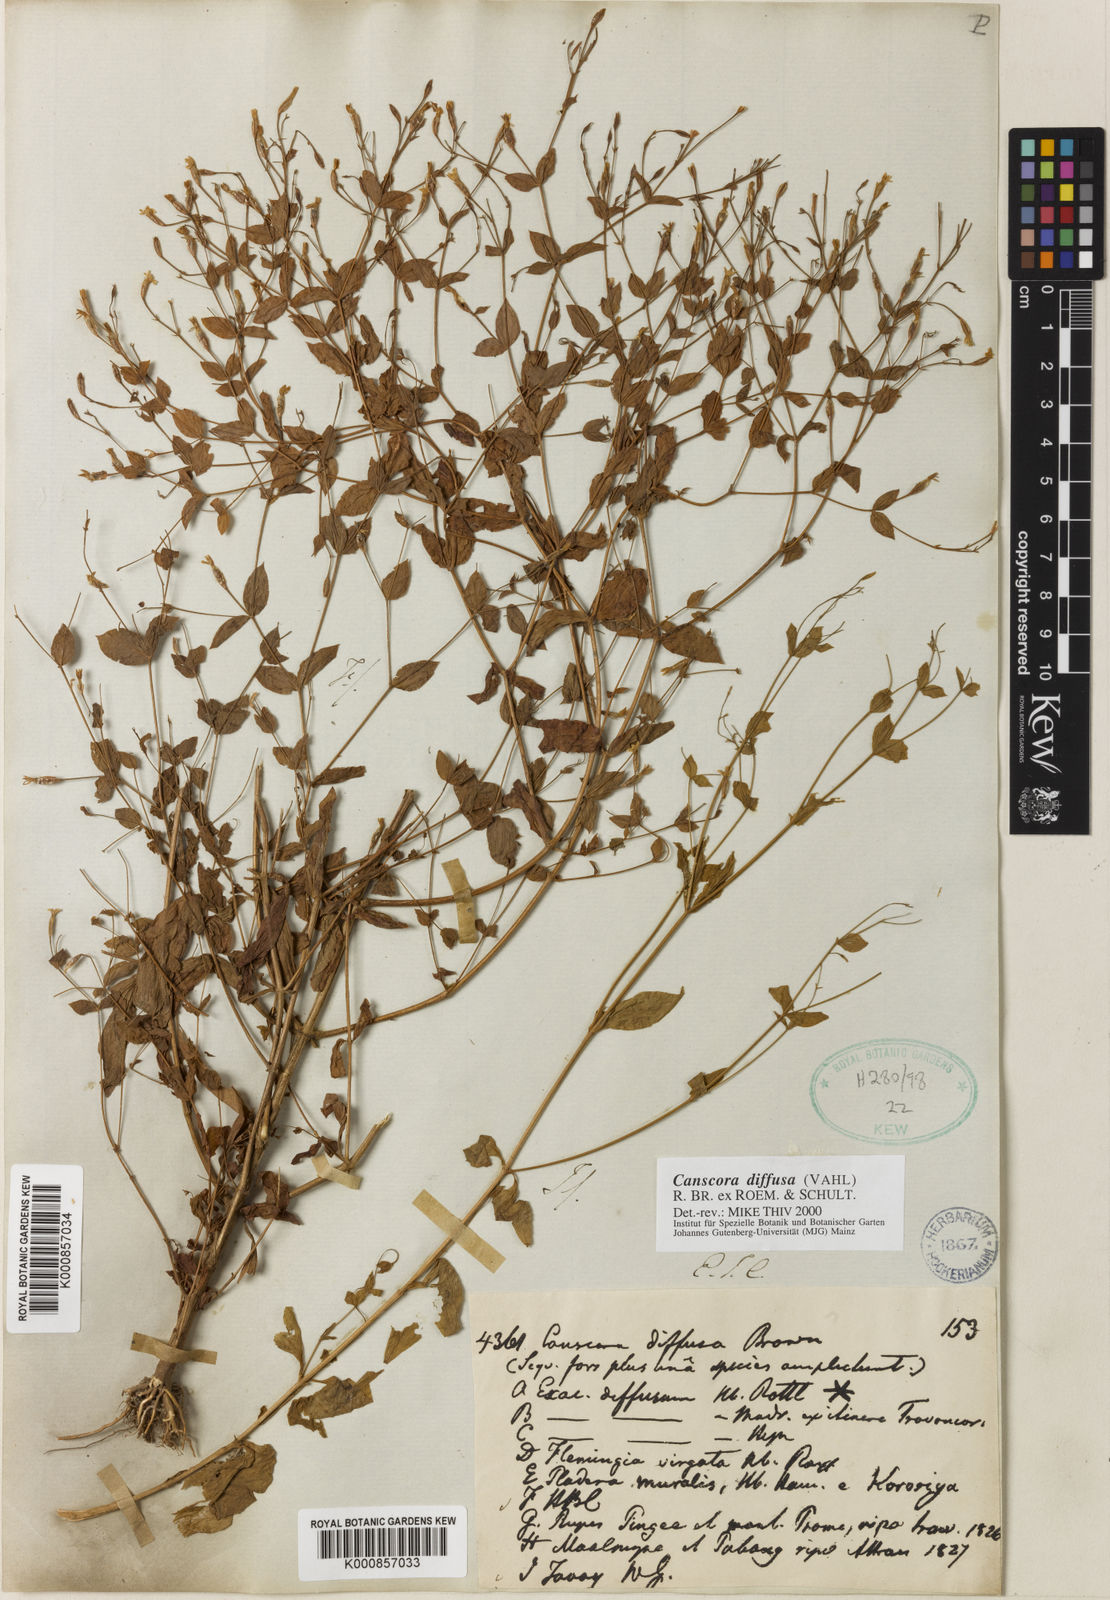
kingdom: Plantae
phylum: Tracheophyta
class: Magnoliopsida
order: Gentianales
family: Gentianaceae
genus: Canscora
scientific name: Canscora diffusa
